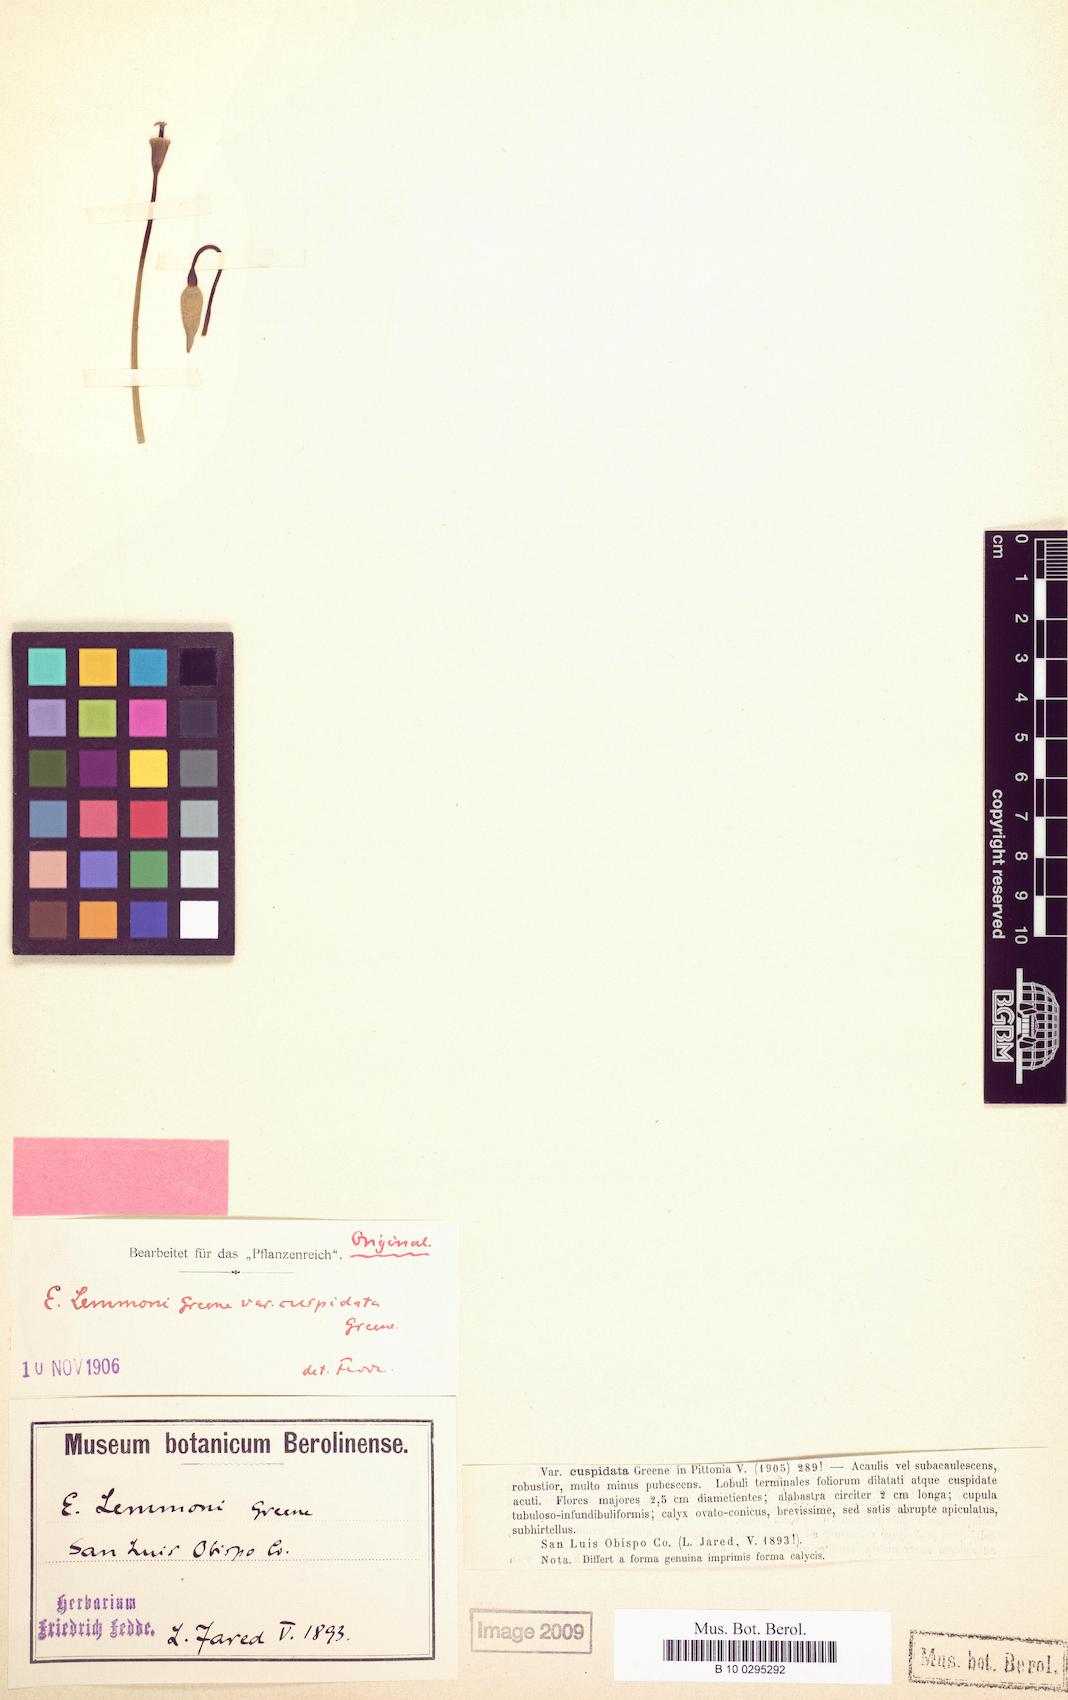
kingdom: Plantae
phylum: Tracheophyta
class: Magnoliopsida
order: Ranunculales
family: Papaveraceae
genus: Eschscholzia
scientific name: Eschscholzia lemmonii
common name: Lemmon's poppy
